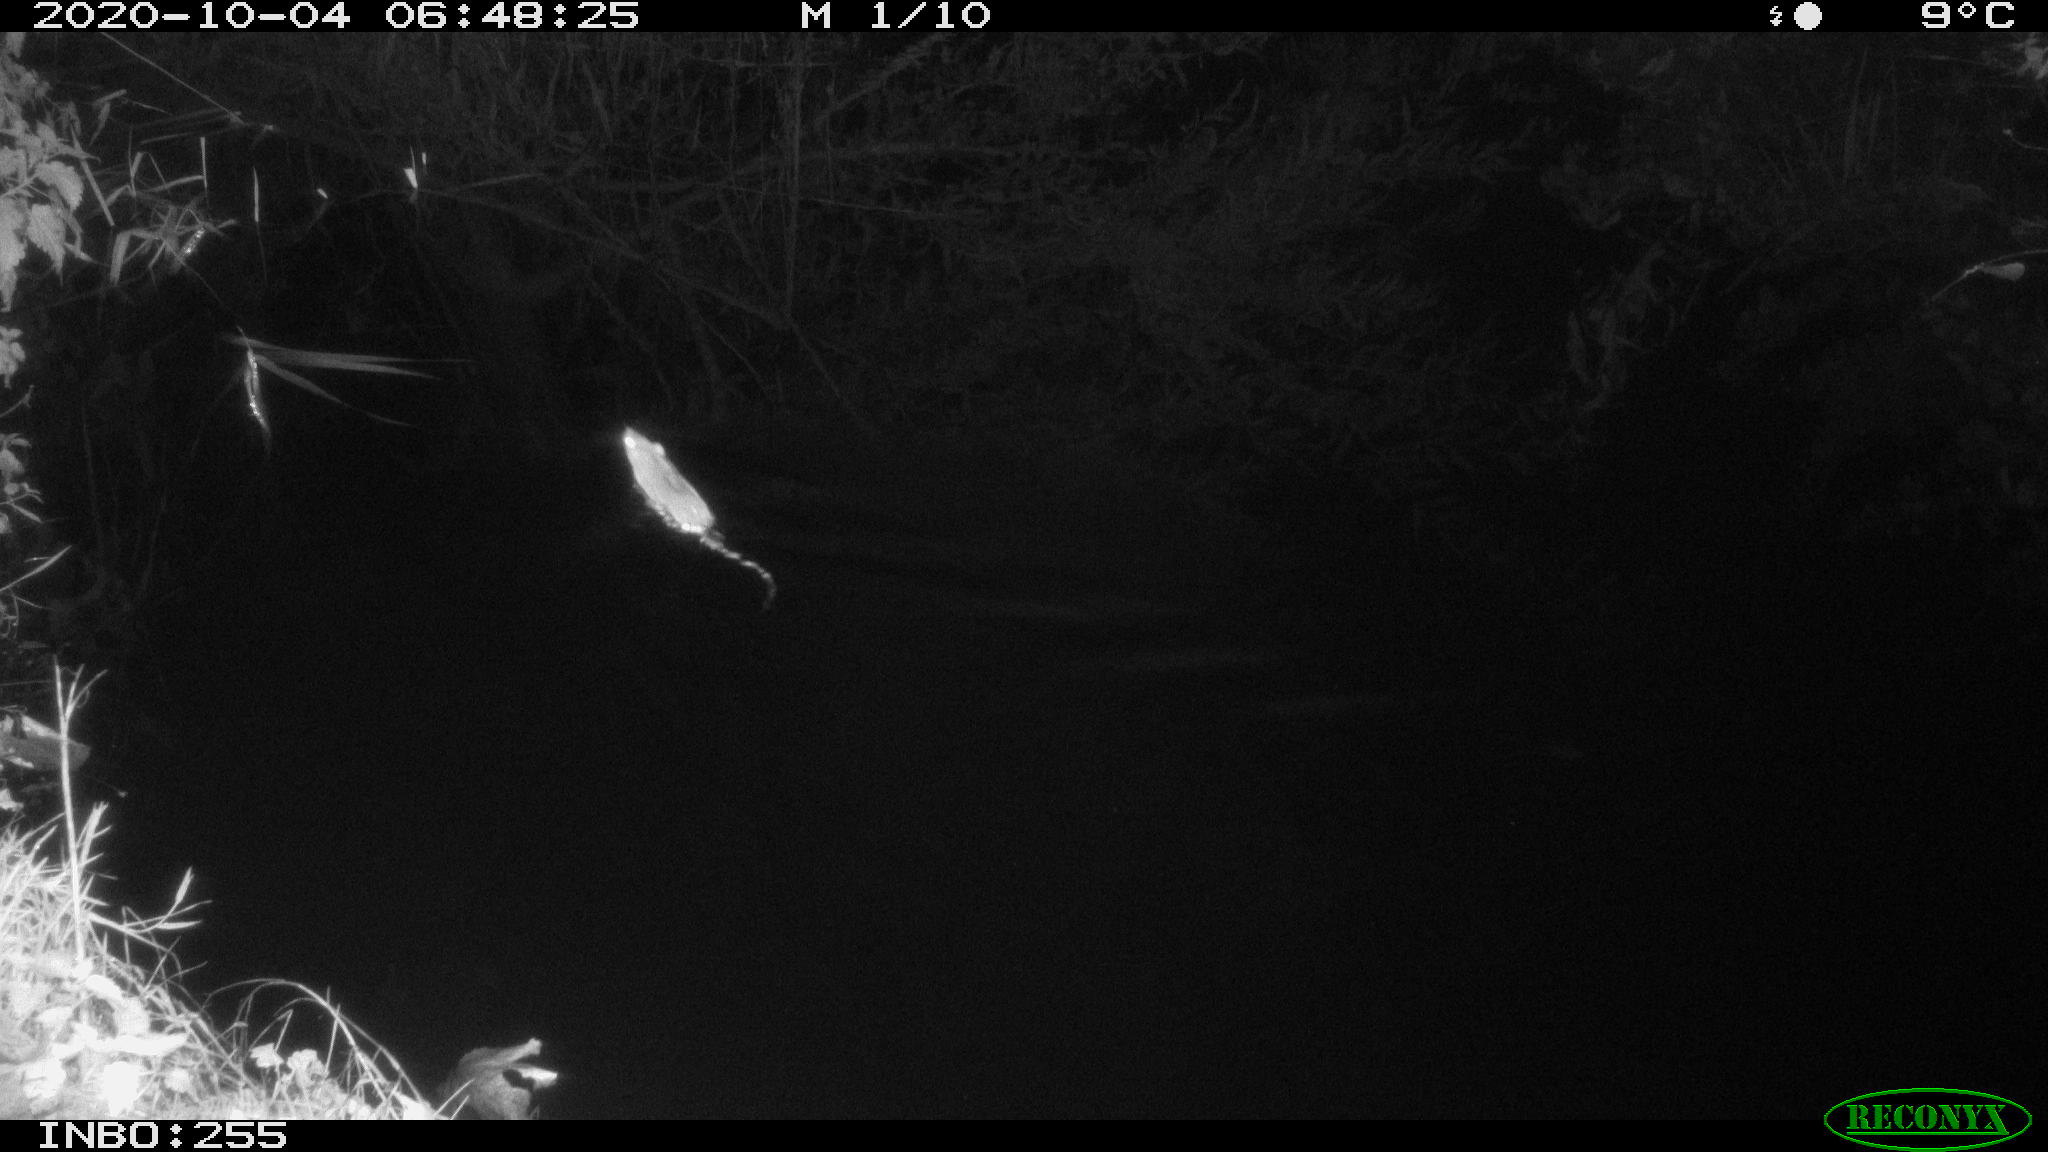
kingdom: Animalia
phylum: Chordata
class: Mammalia
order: Rodentia
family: Muridae
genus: Rattus
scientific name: Rattus norvegicus
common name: Brown rat
